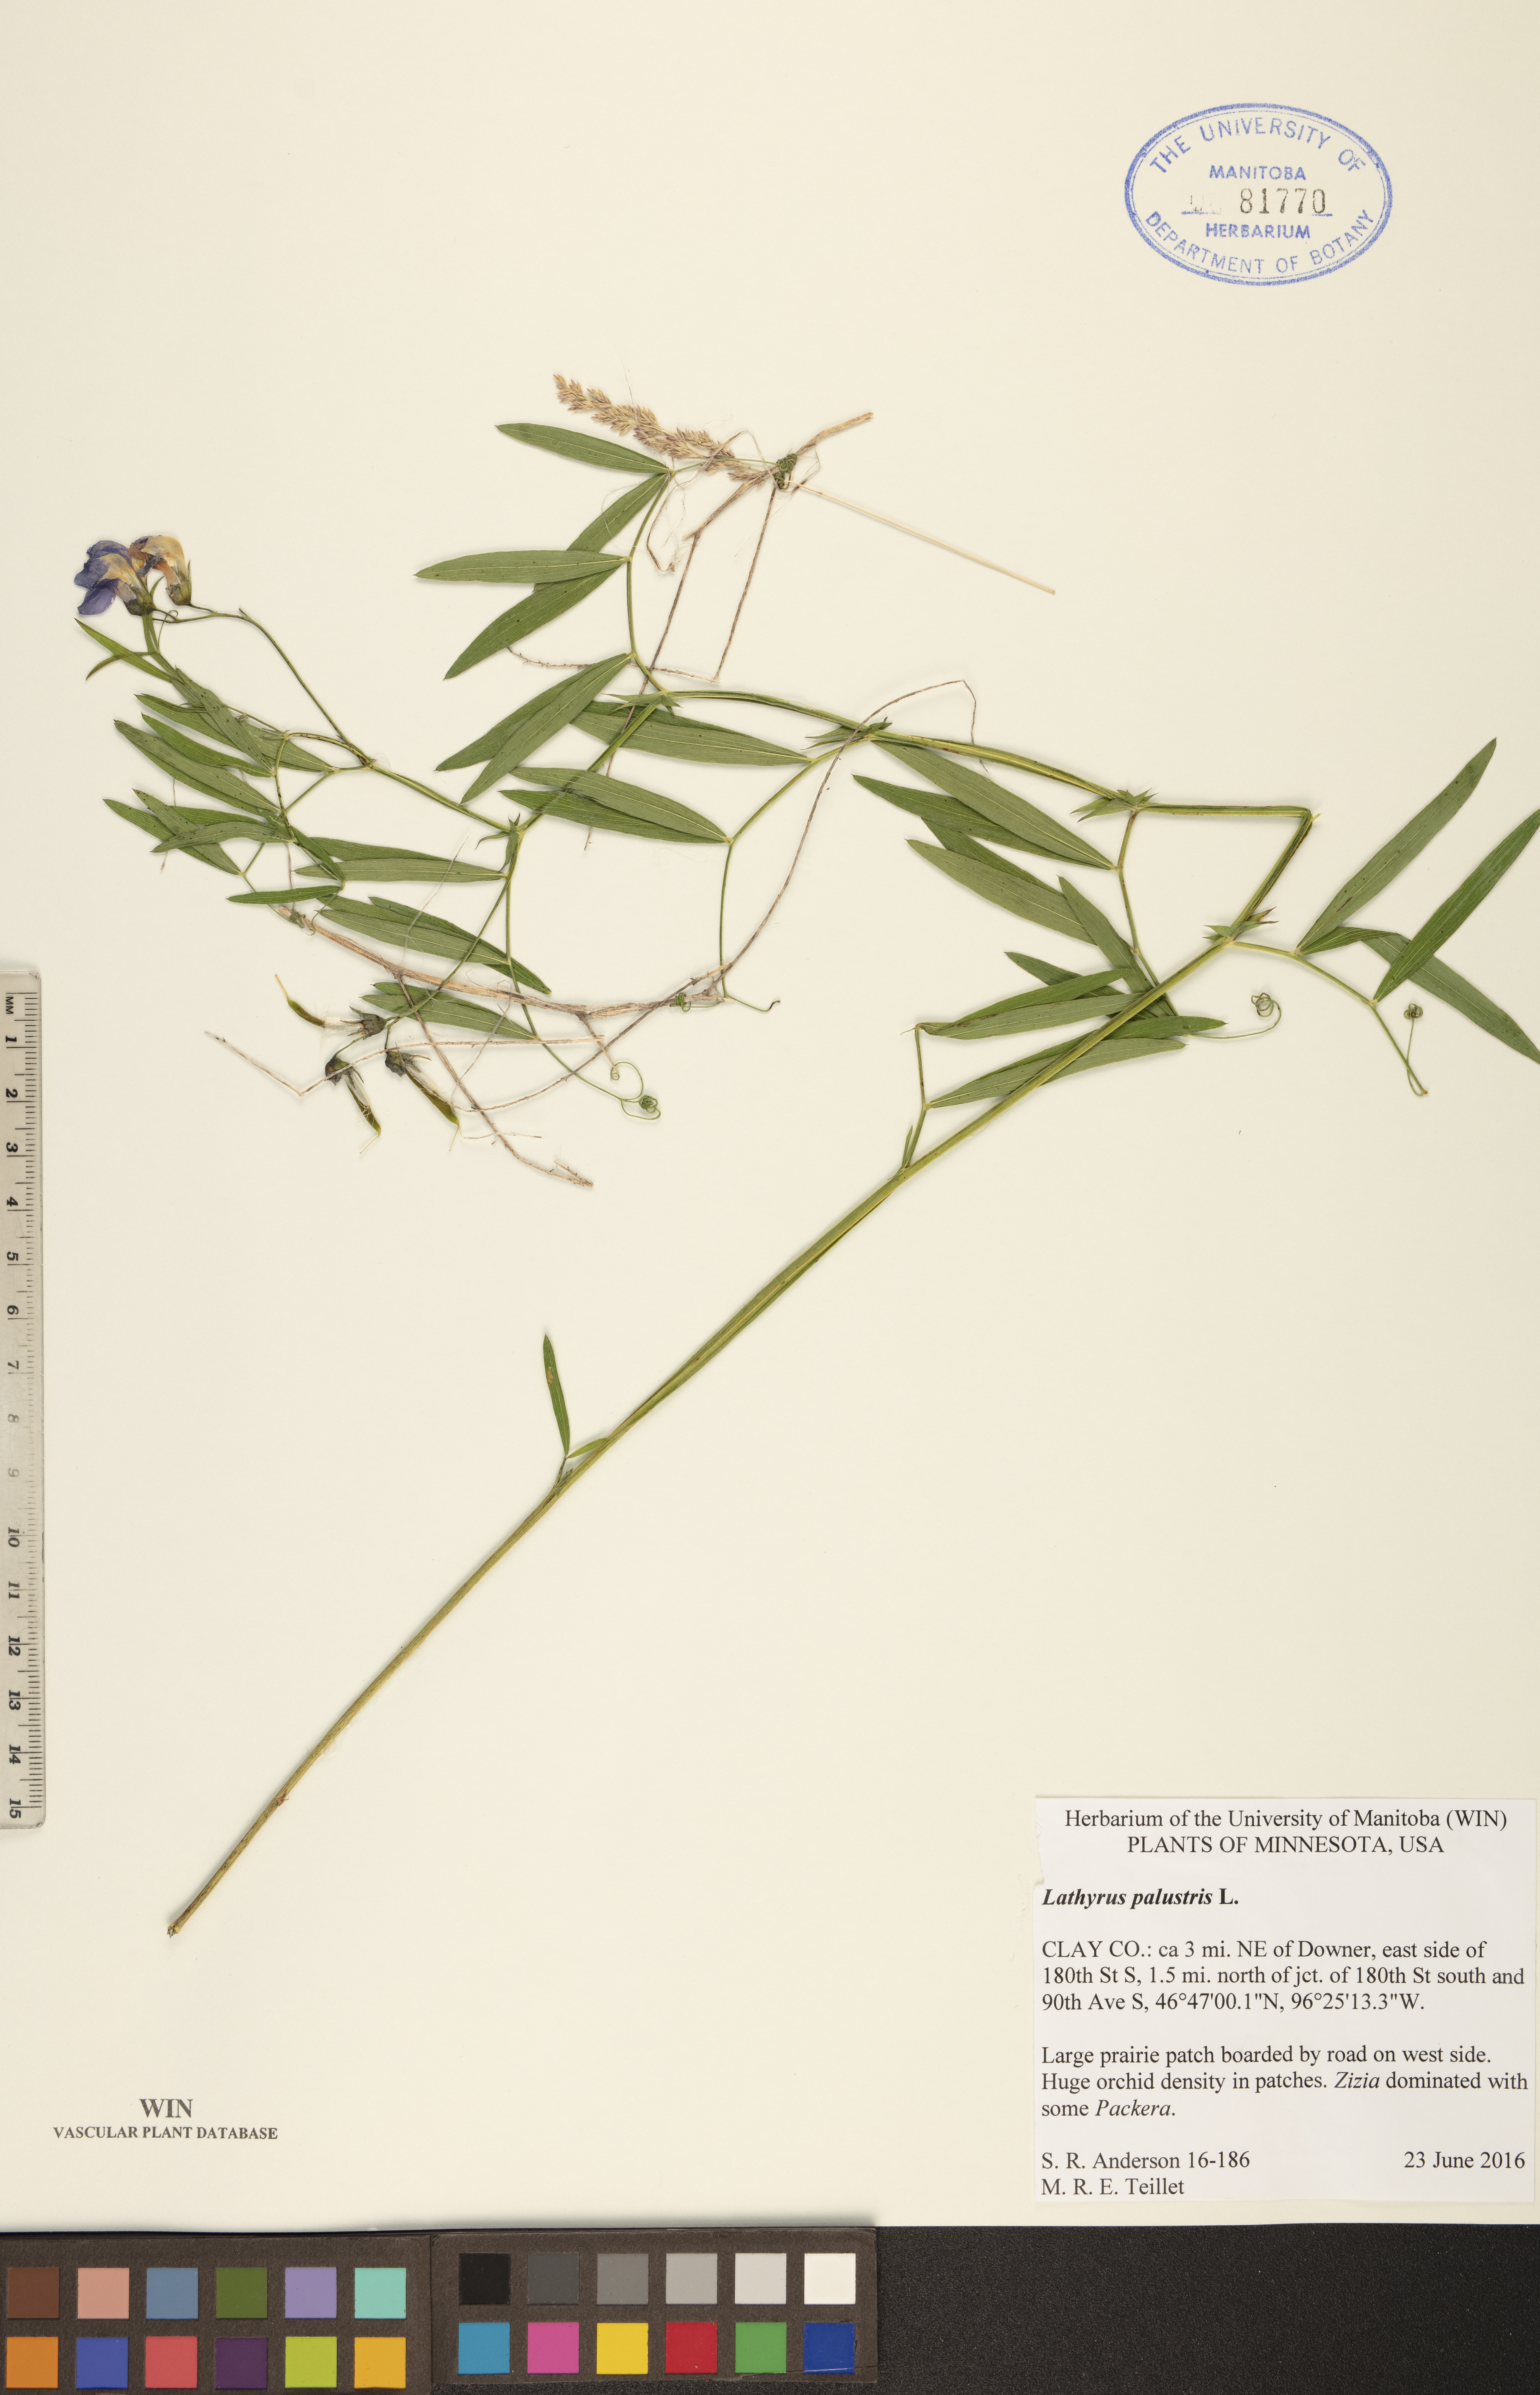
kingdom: Plantae
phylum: Tracheophyta
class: Magnoliopsida
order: Fabales
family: Fabaceae
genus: Lathyrus
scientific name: Lathyrus palustris
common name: Marsh pea
